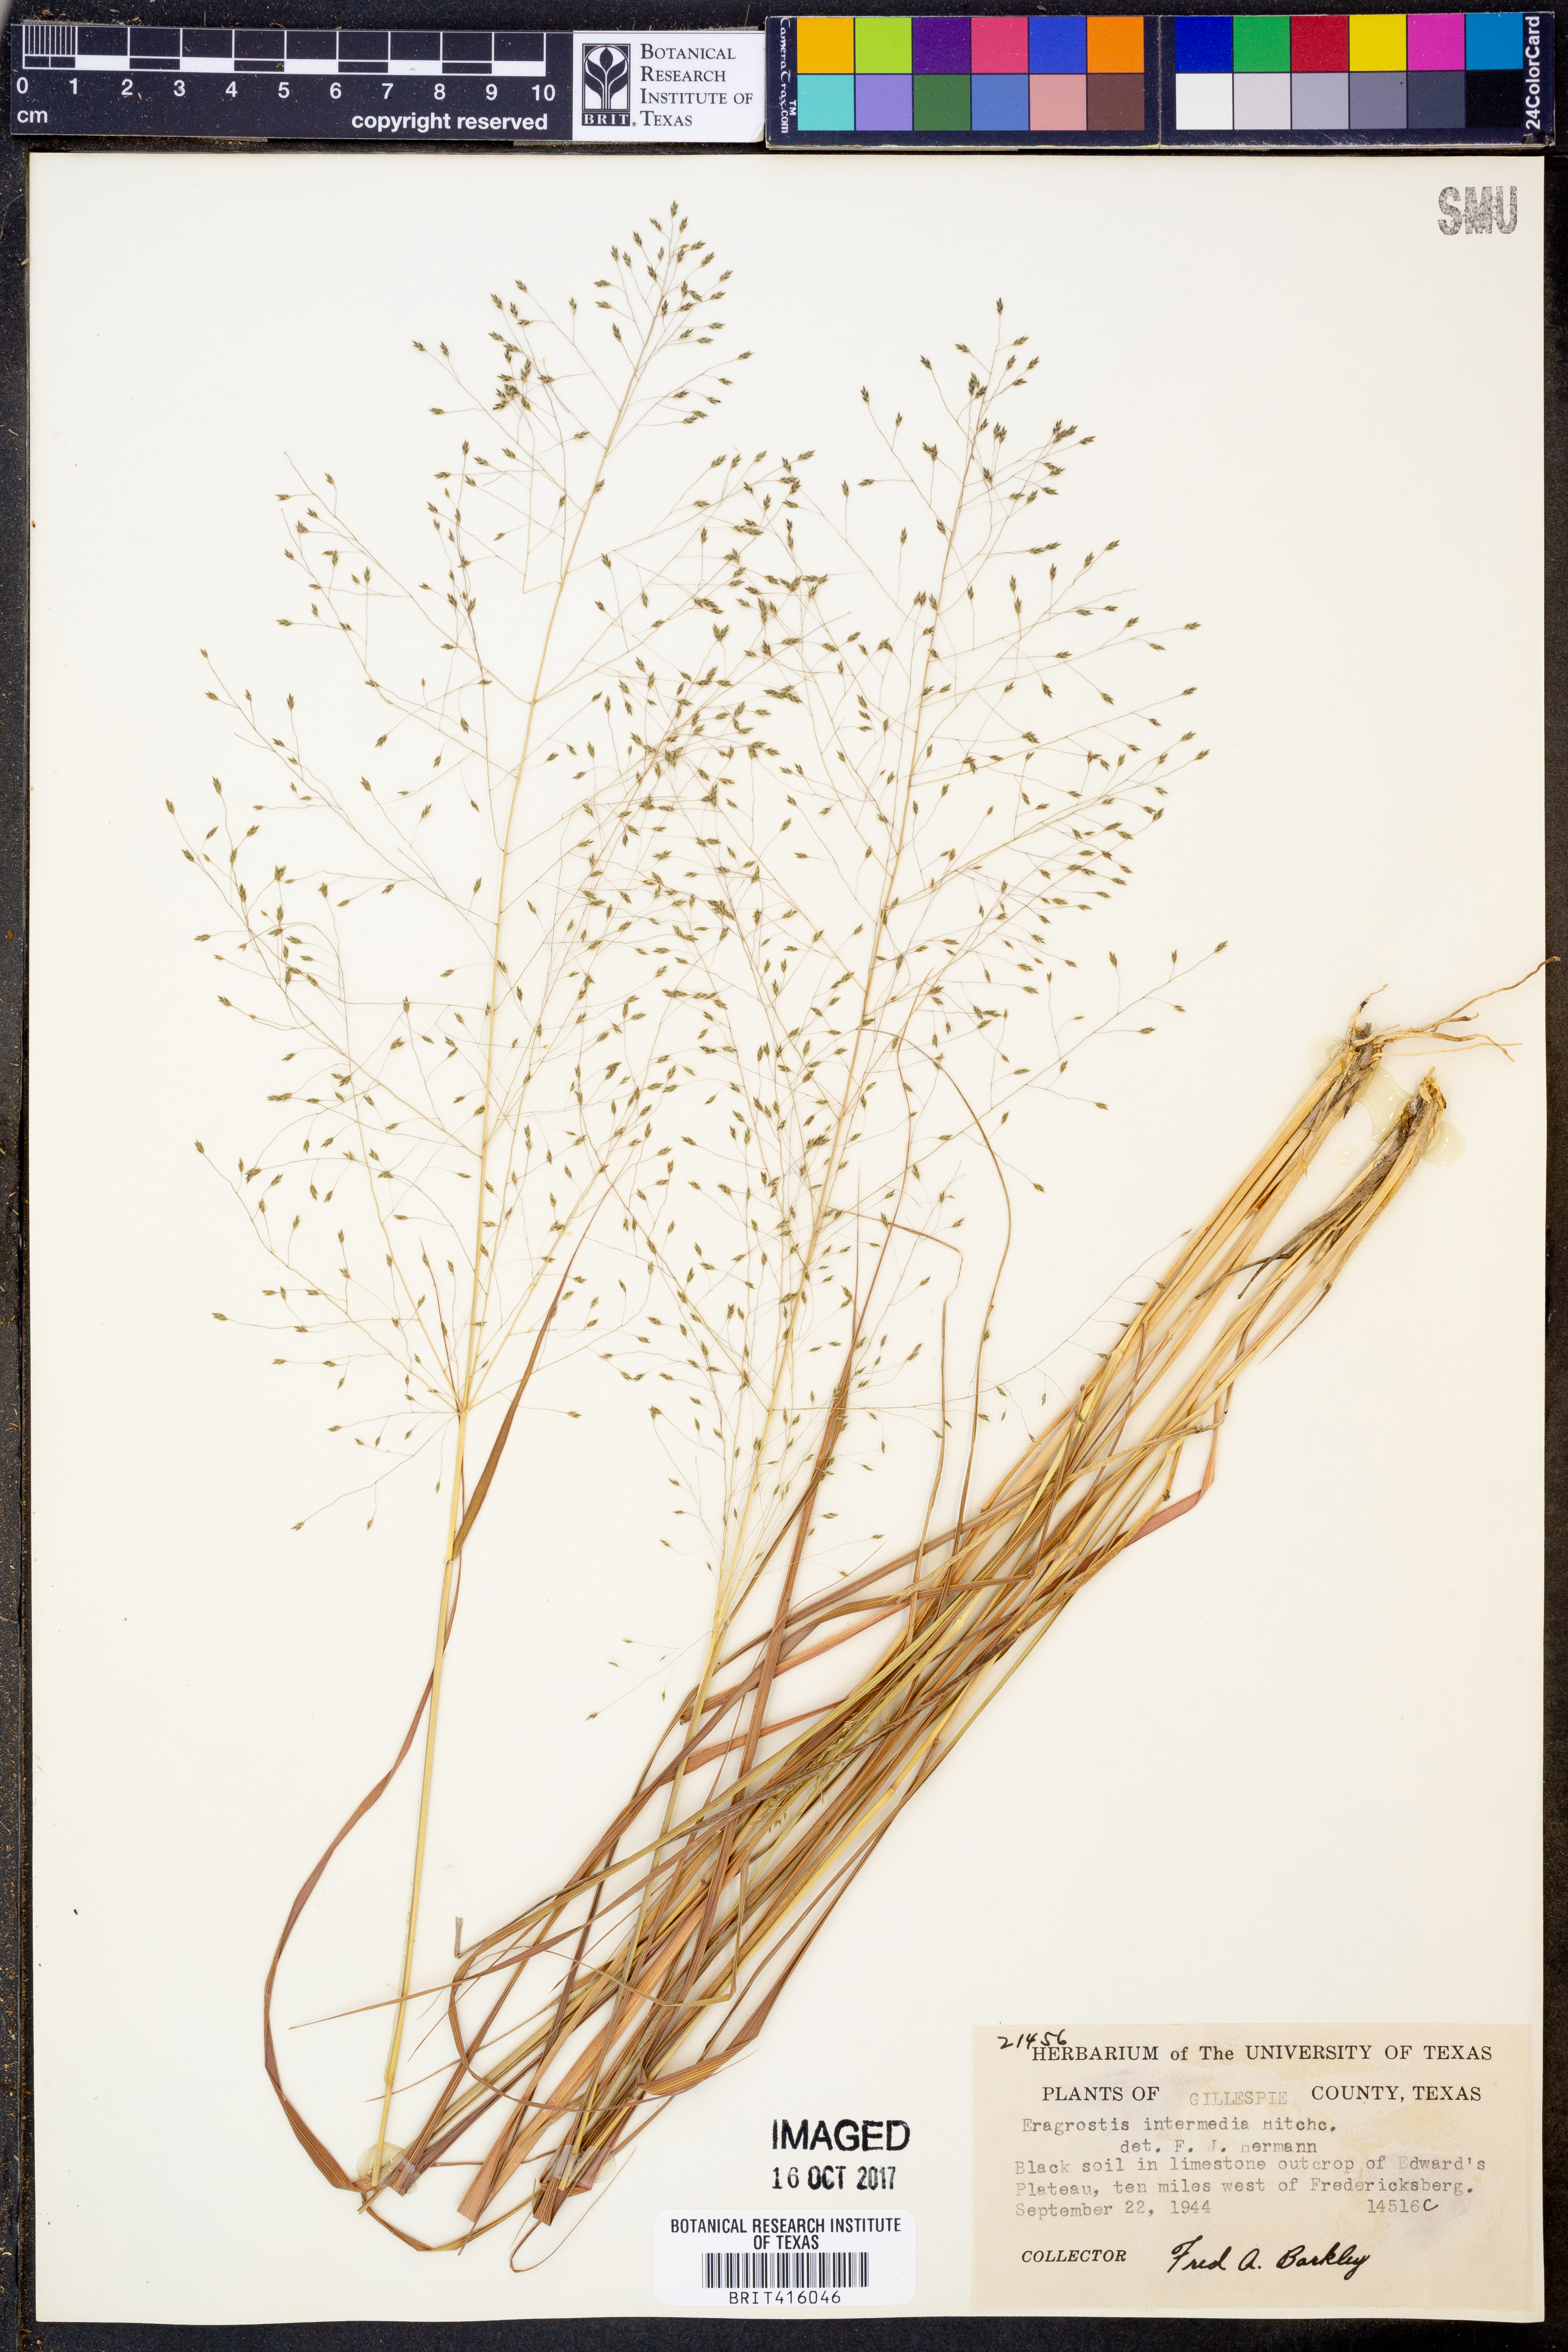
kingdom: Plantae
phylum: Tracheophyta
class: Liliopsida
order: Poales
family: Poaceae
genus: Eragrostis
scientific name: Eragrostis intermedia
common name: Plains love grass
